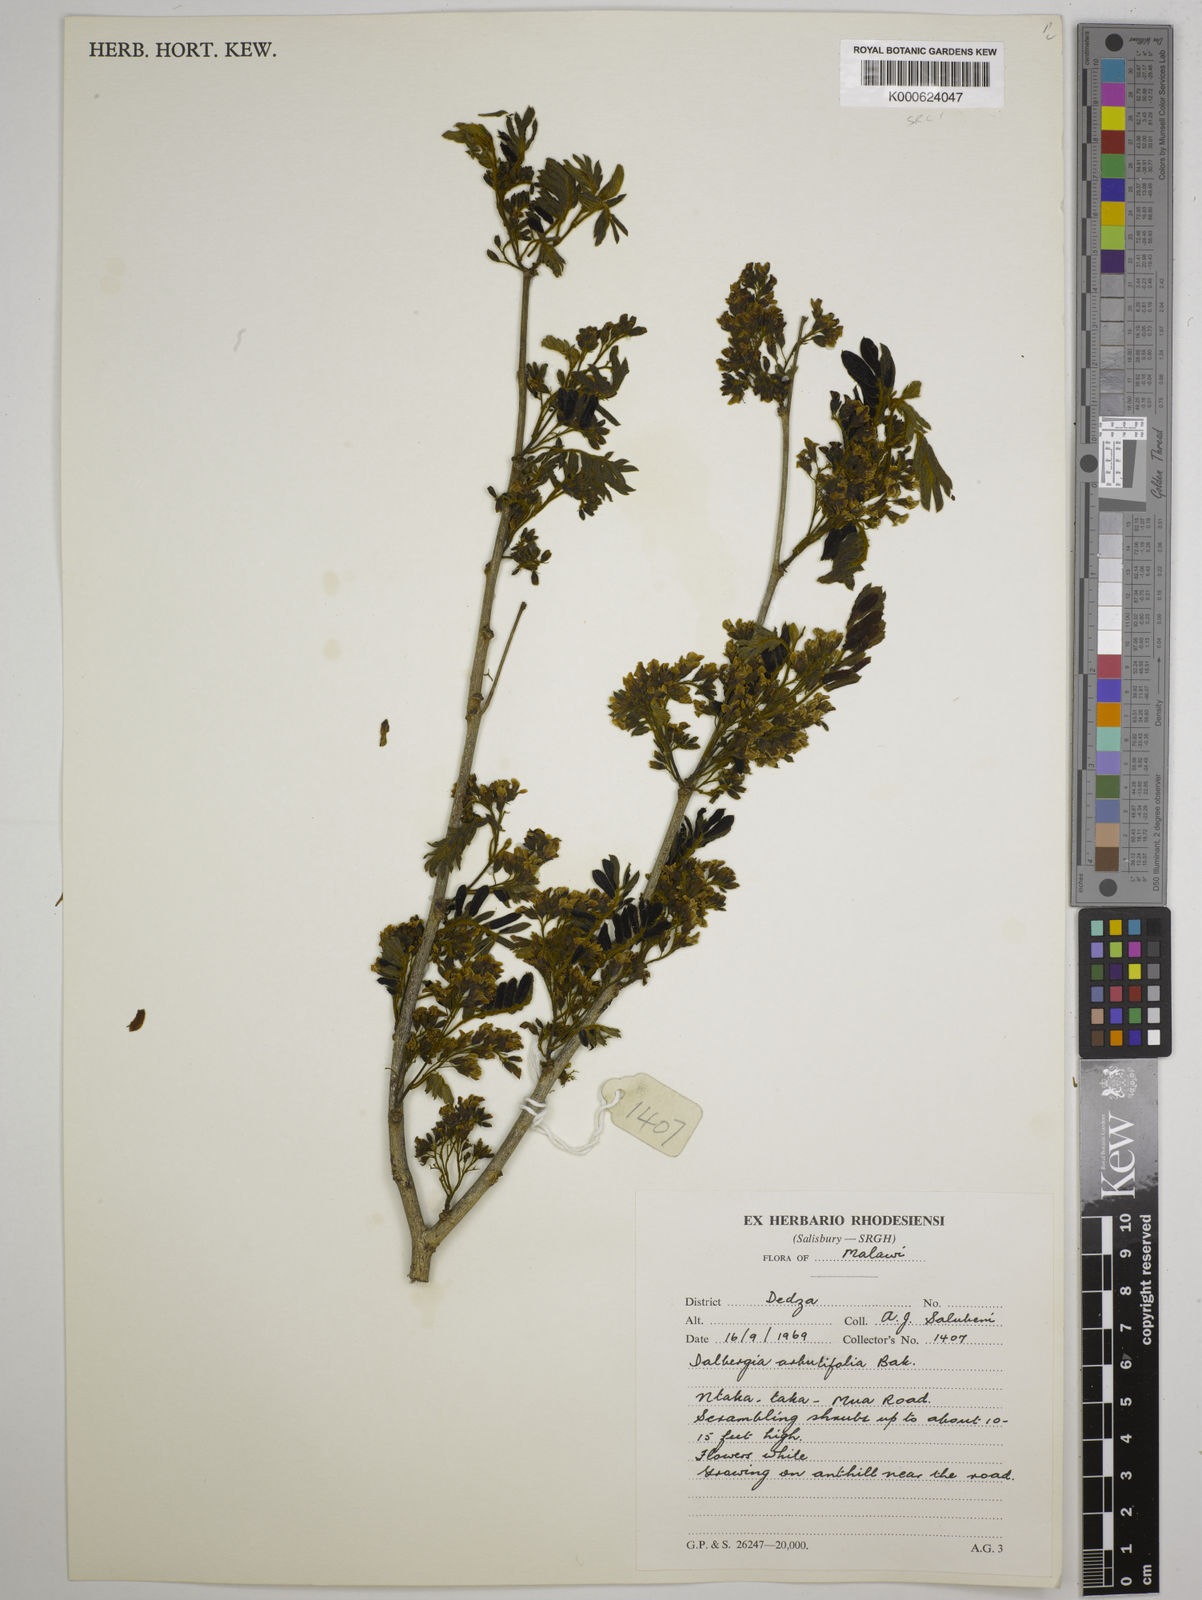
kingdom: Plantae
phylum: Tracheophyta
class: Magnoliopsida
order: Fabales
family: Fabaceae
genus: Dalbergia
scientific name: Dalbergia arbutifolia
